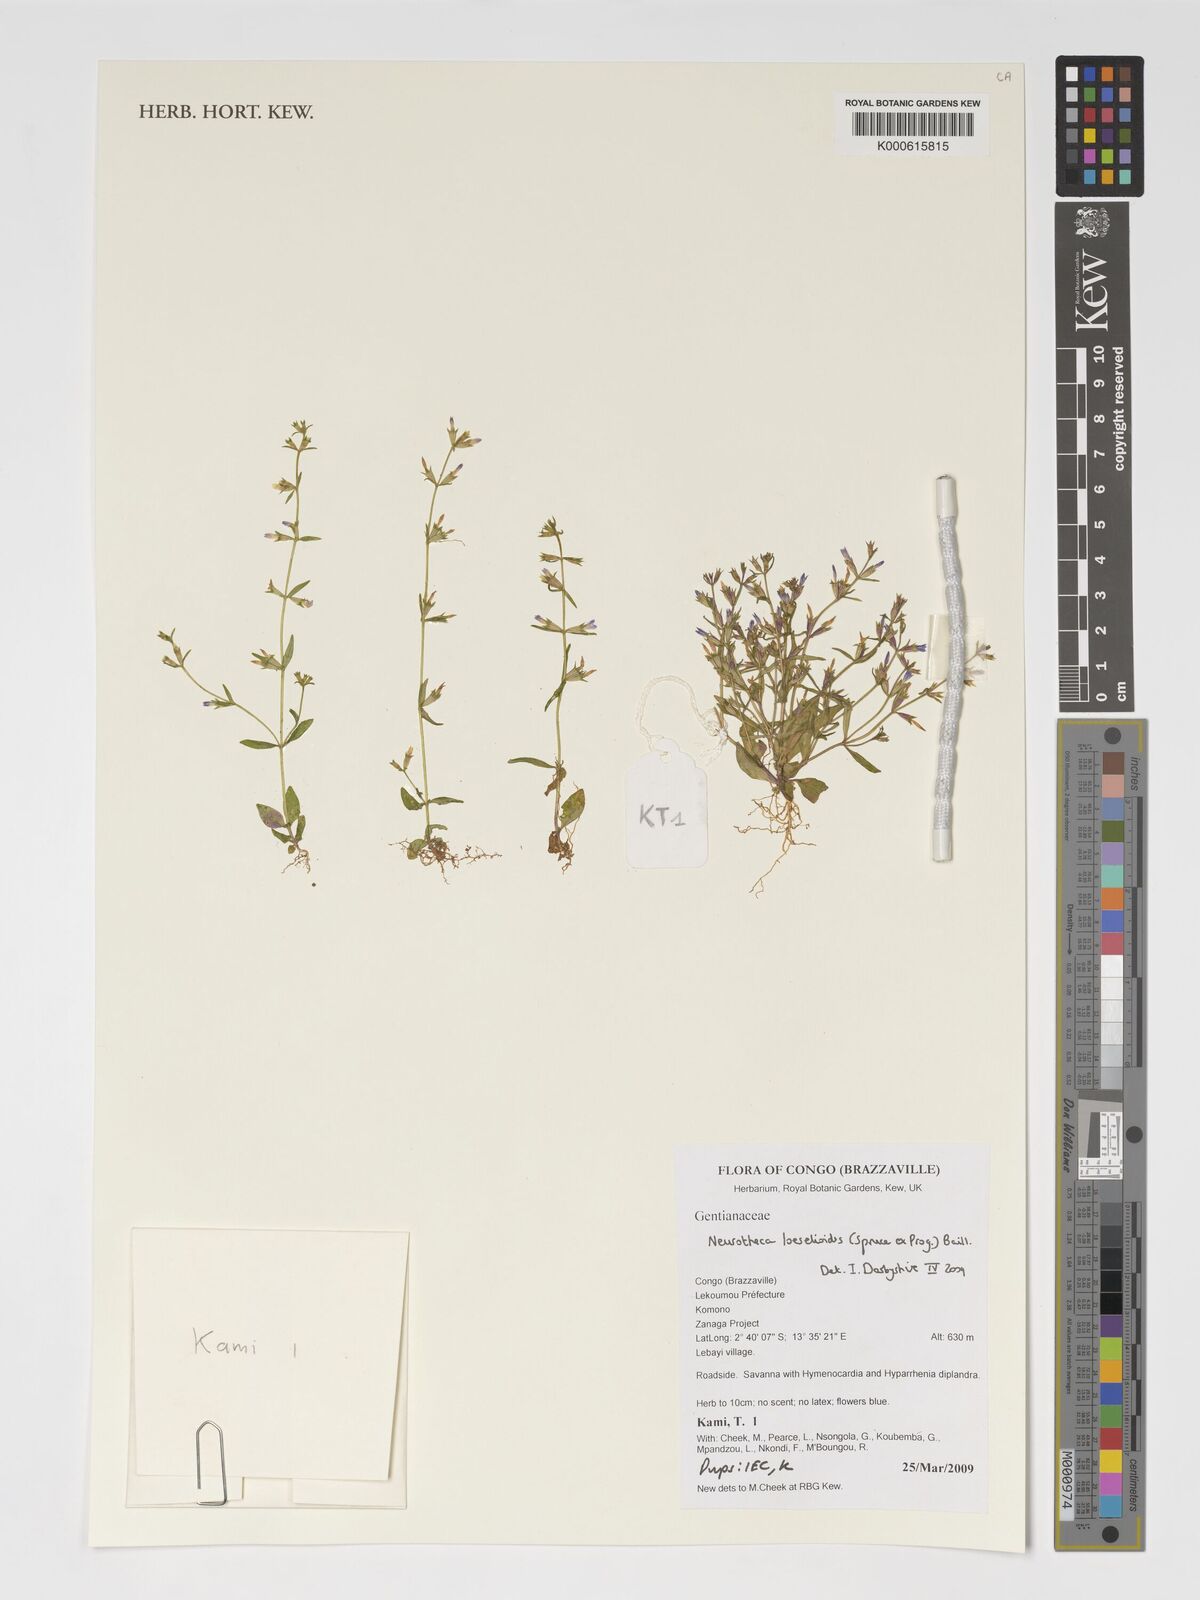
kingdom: Plantae
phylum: Tracheophyta
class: Magnoliopsida
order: Gentianales
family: Gentianaceae
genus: Neurotheca
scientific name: Neurotheca loeselioides
